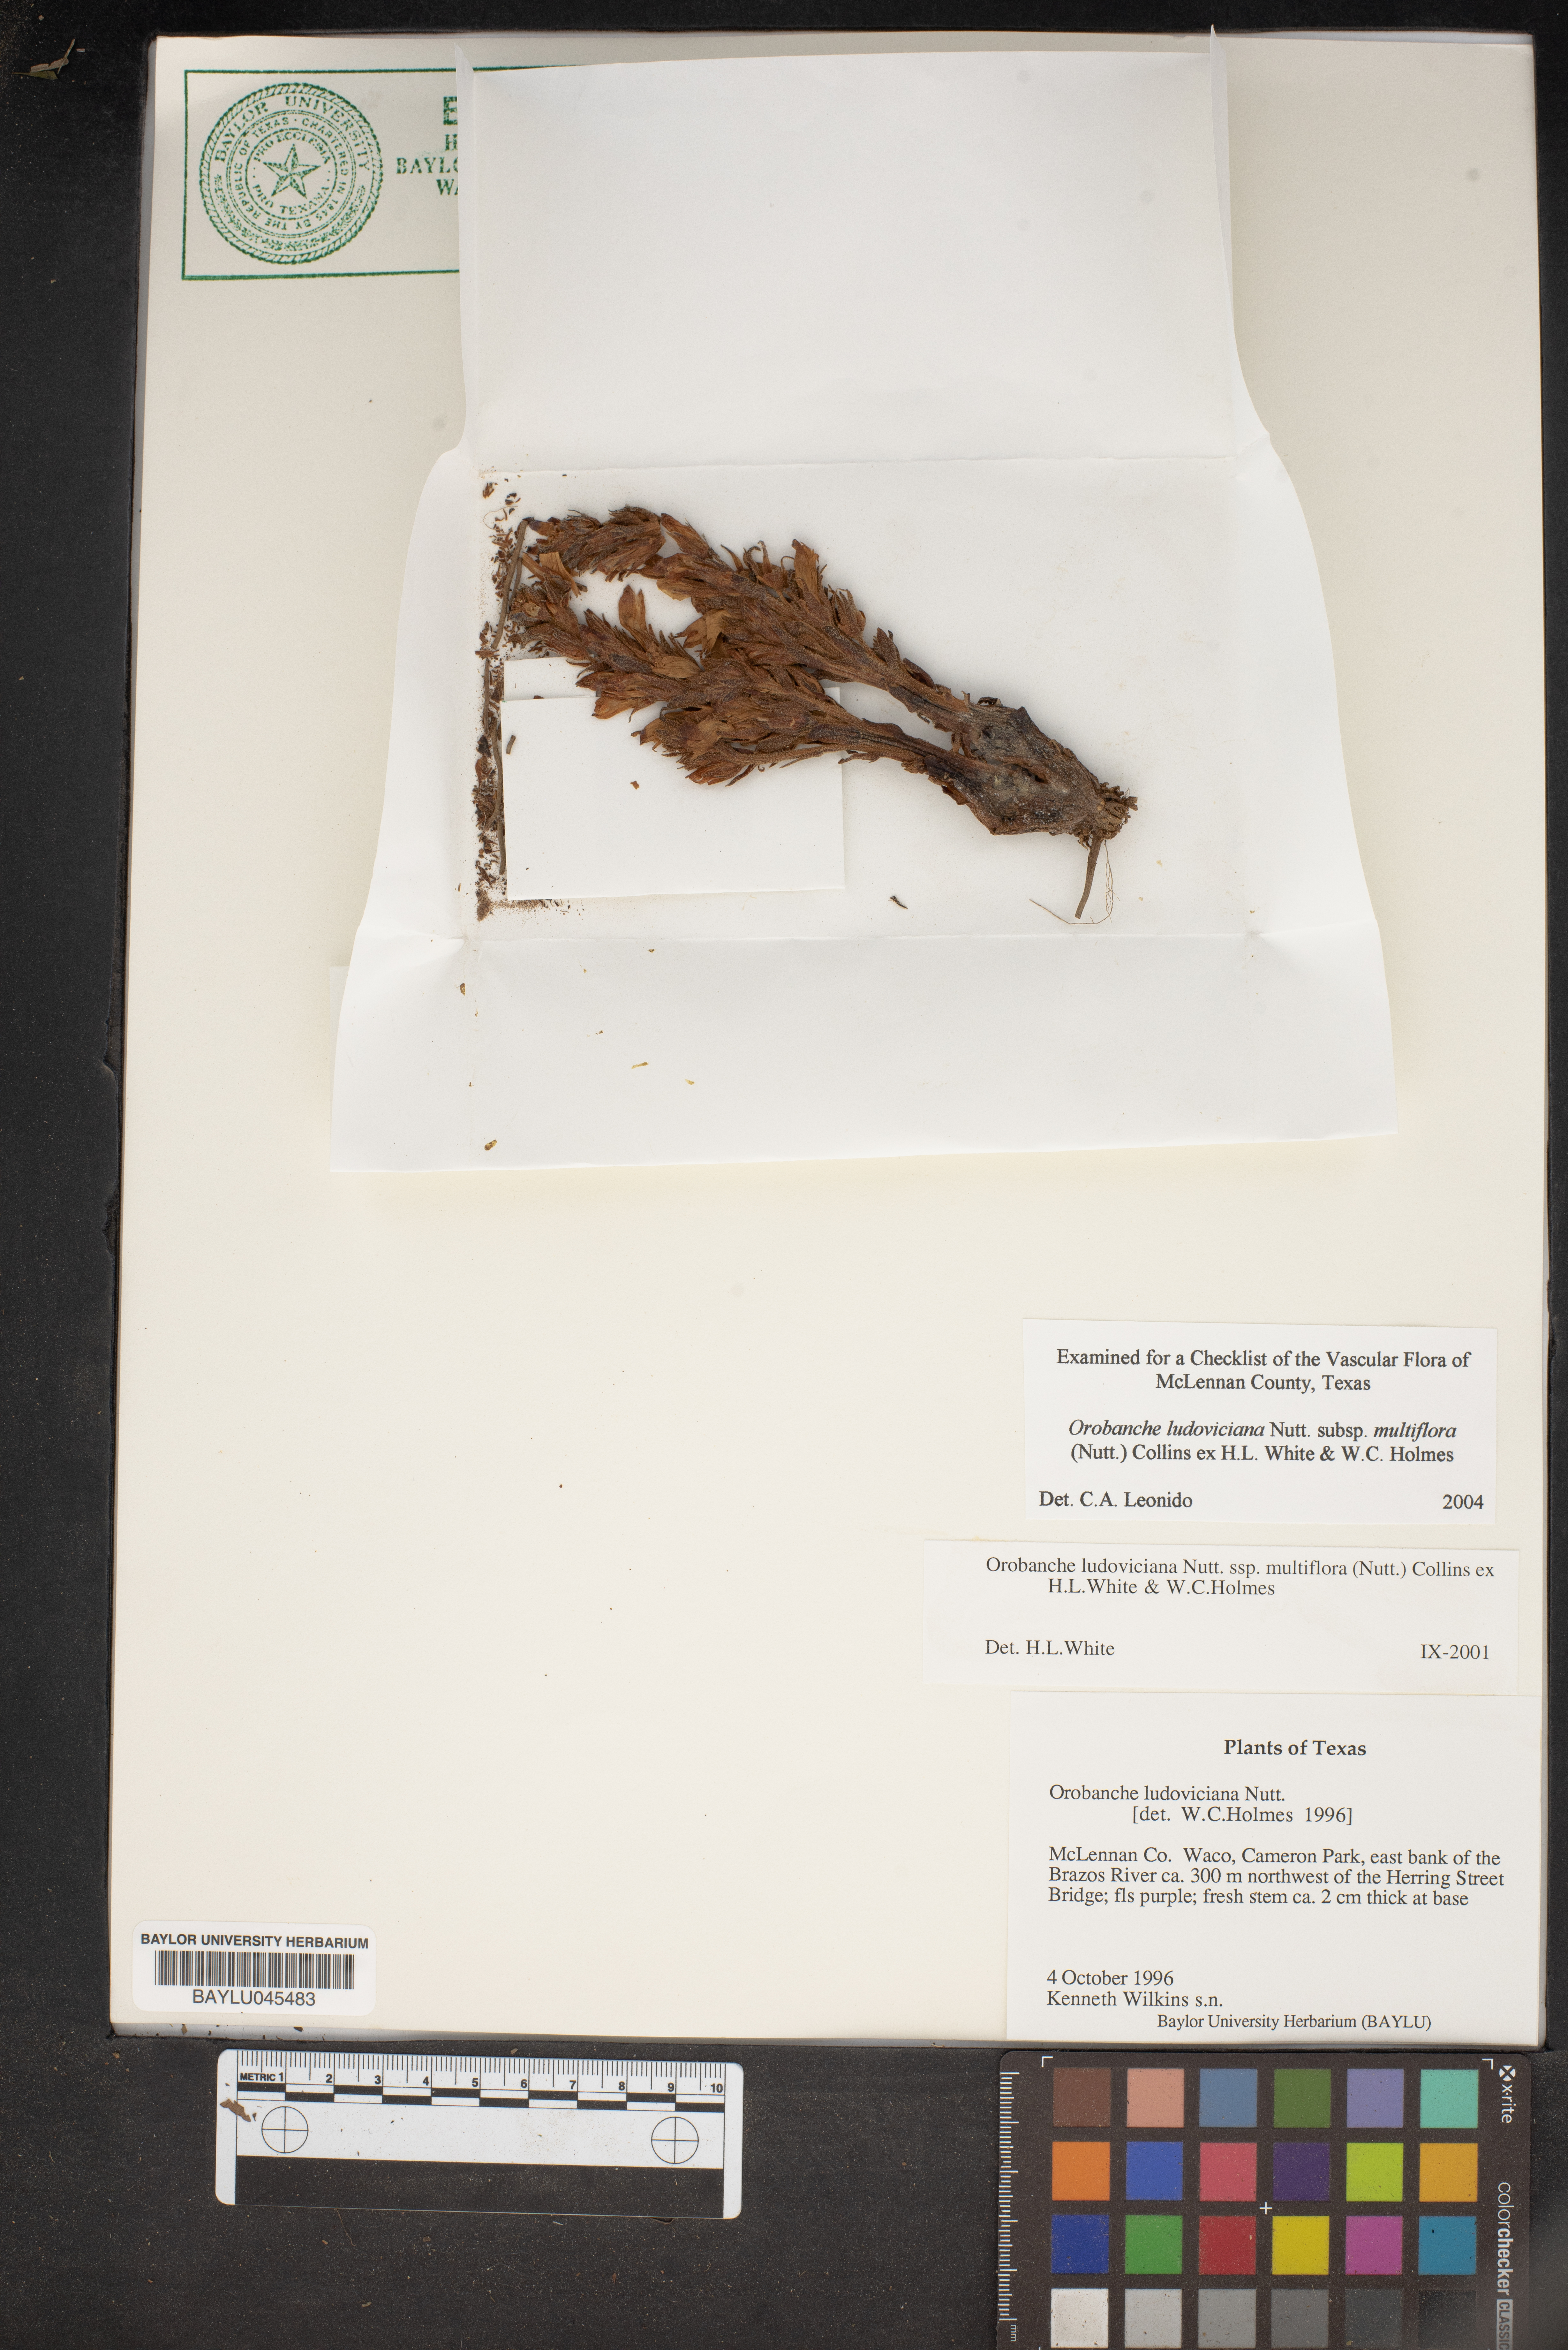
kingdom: Plantae
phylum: Tracheophyta
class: Magnoliopsida
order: Lamiales
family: Orobanchaceae
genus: Aphyllon
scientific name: Aphyllon multiflorum
